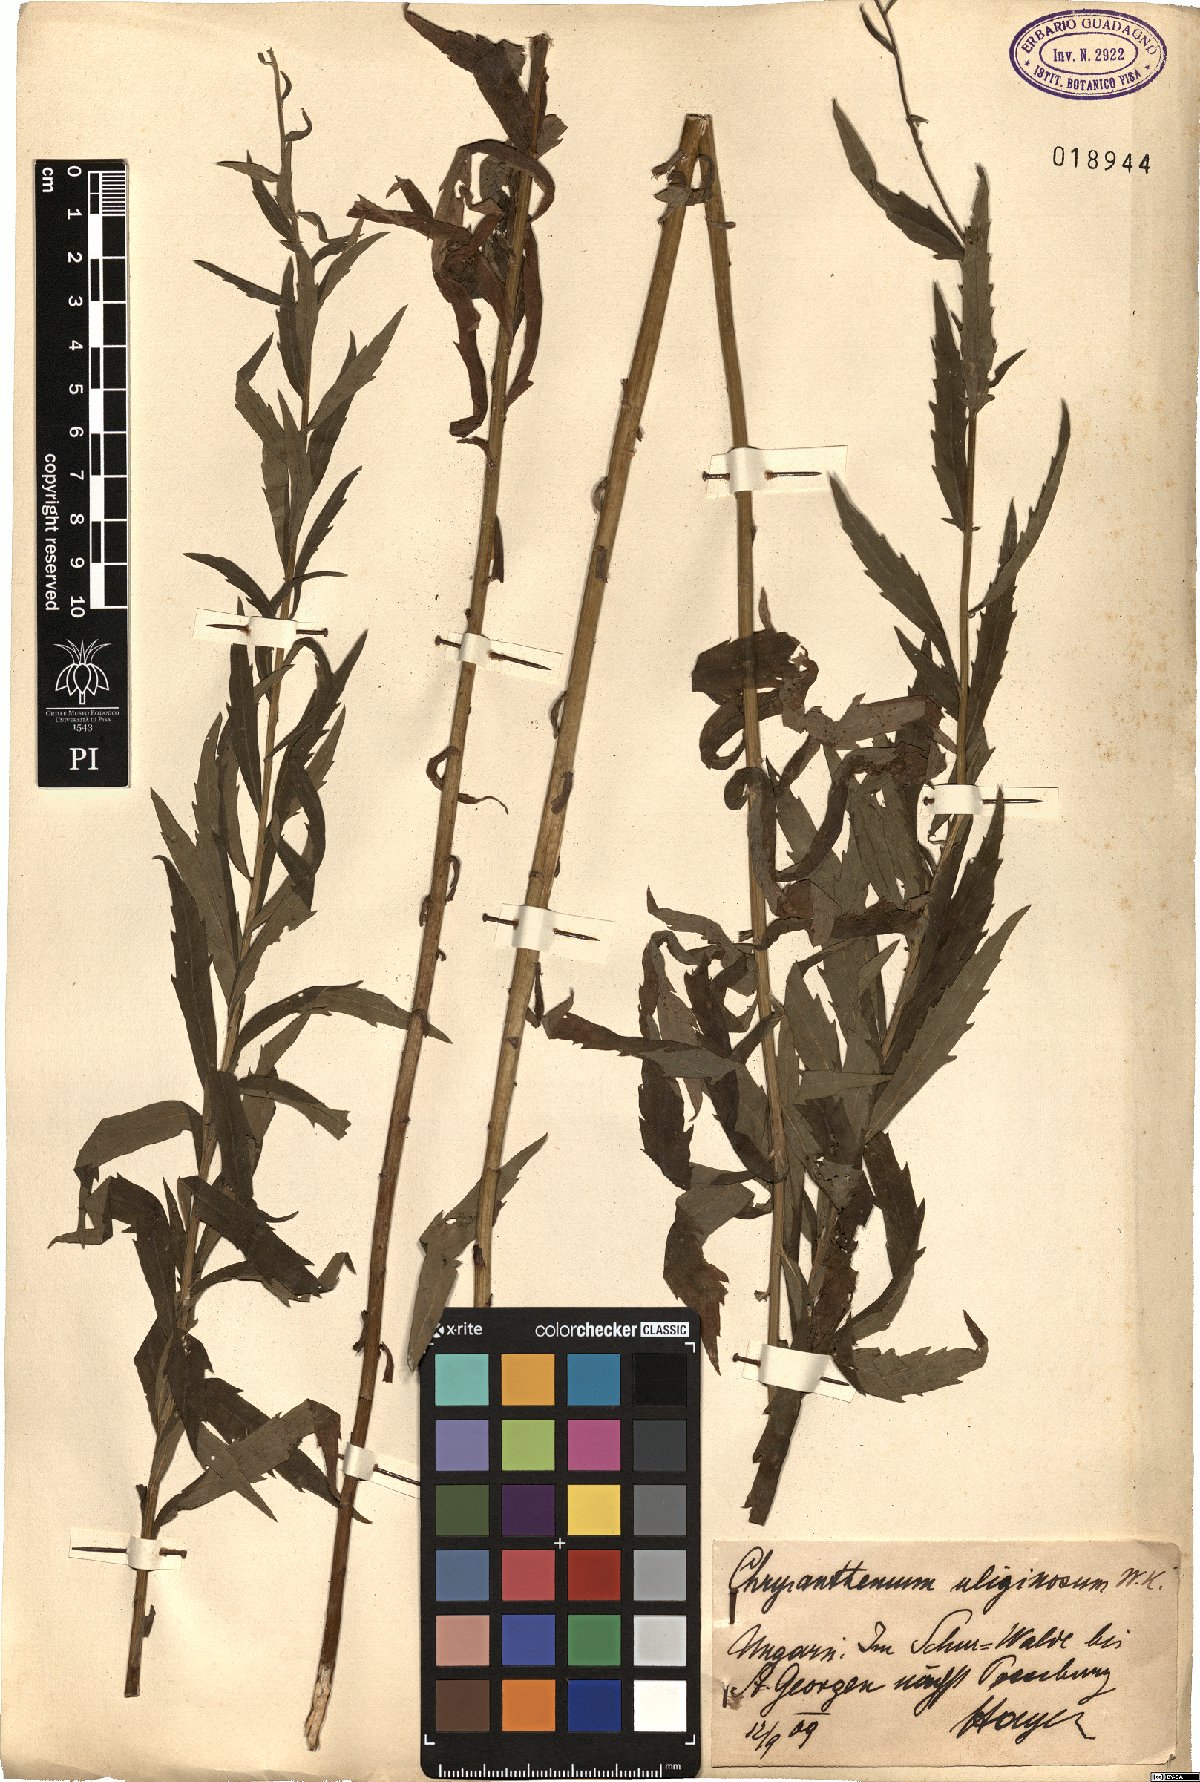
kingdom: Plantae
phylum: Tracheophyta
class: Magnoliopsida
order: Asterales
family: Asteraceae
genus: Leucanthemella
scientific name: Leucanthemella serotina
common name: Autumn oxeye
